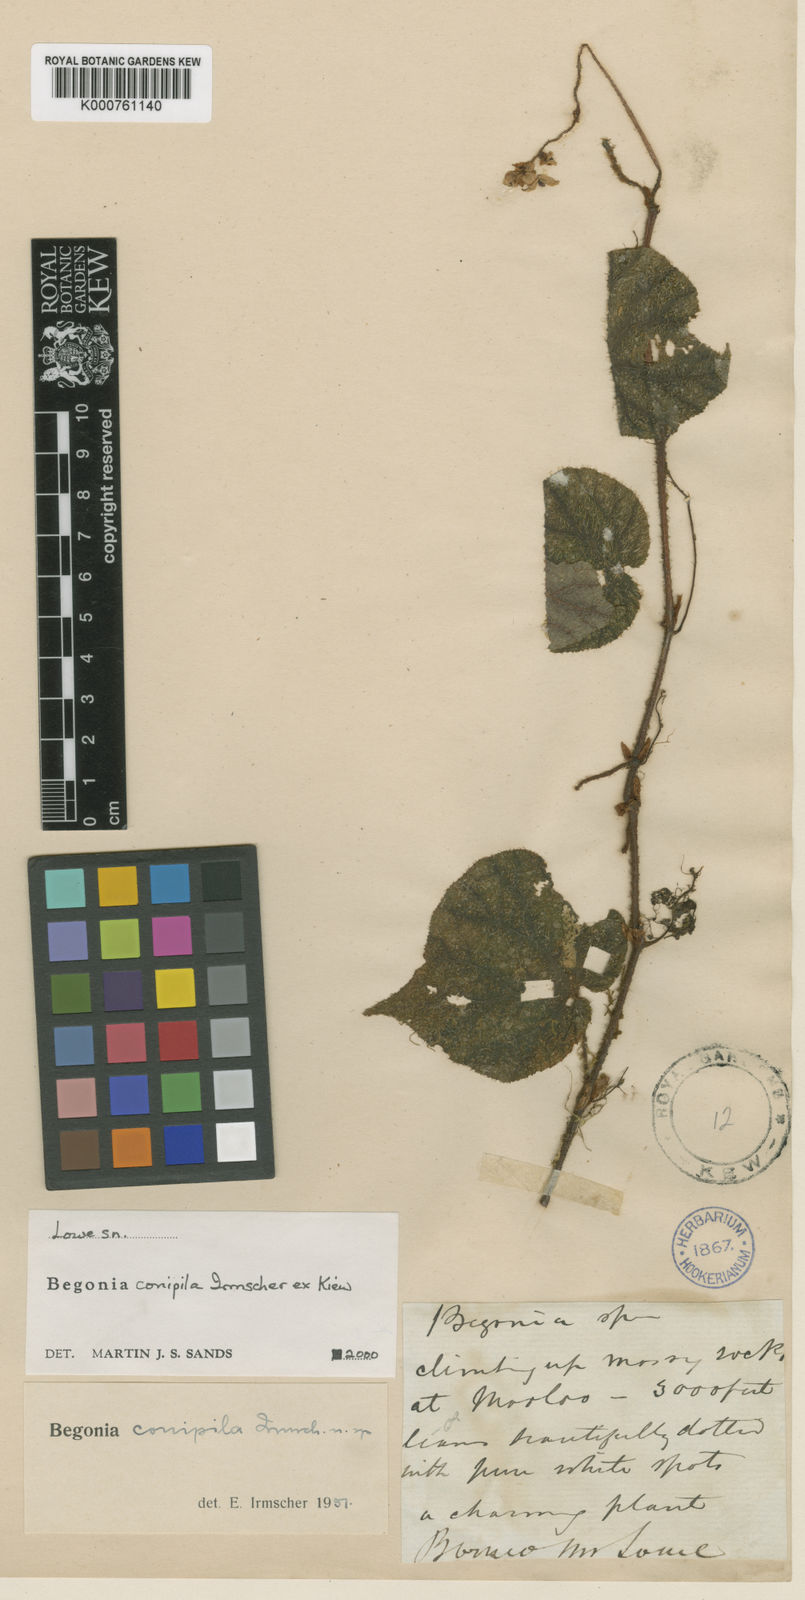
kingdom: Plantae
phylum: Tracheophyta
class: Magnoliopsida
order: Cucurbitales
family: Begoniaceae
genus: Begonia
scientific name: Begonia conipila
